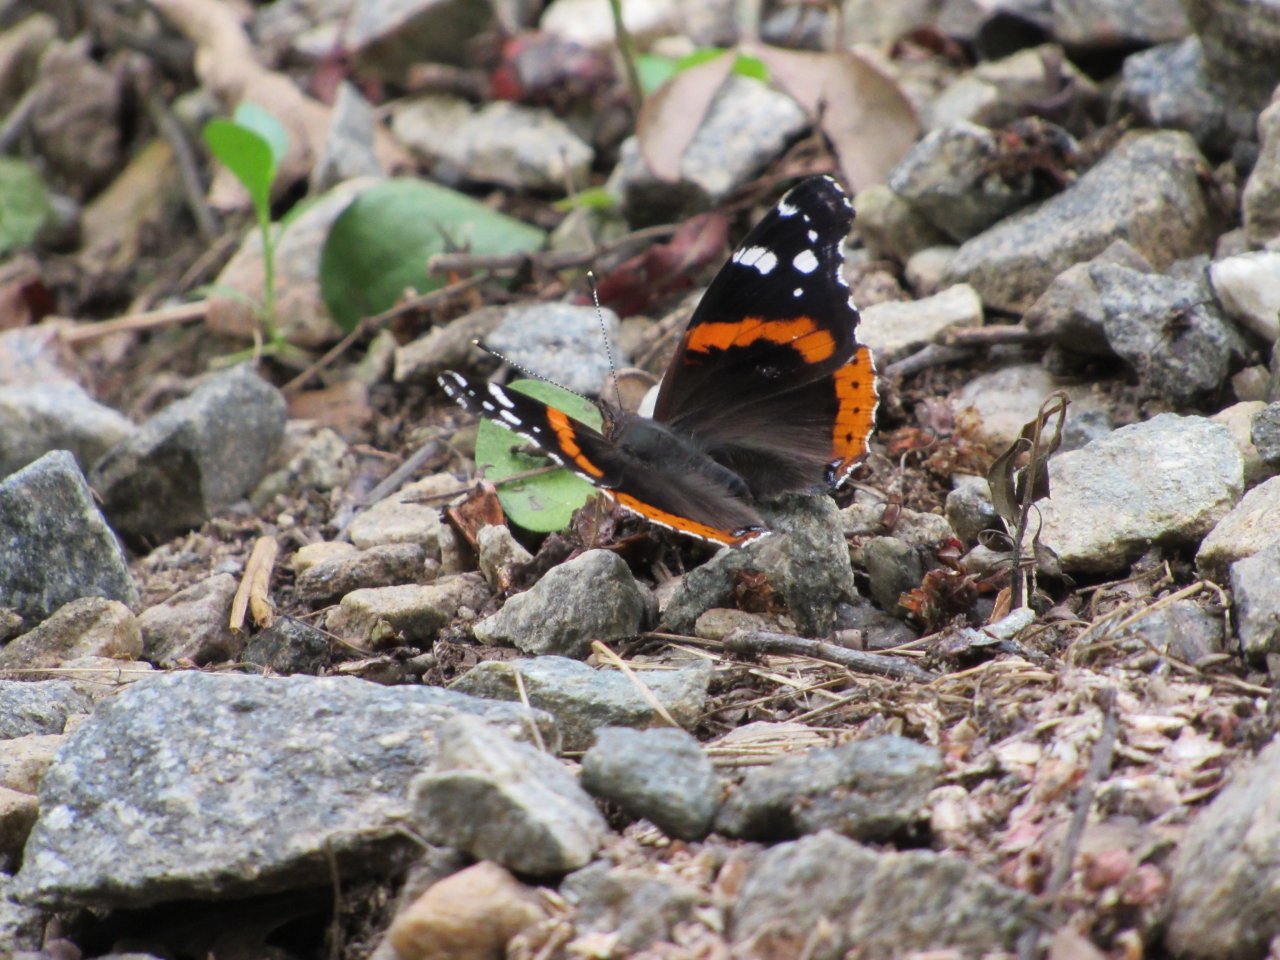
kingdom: Animalia
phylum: Arthropoda
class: Insecta
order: Lepidoptera
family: Nymphalidae
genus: Vanessa
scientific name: Vanessa atalanta
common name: Red Admiral
